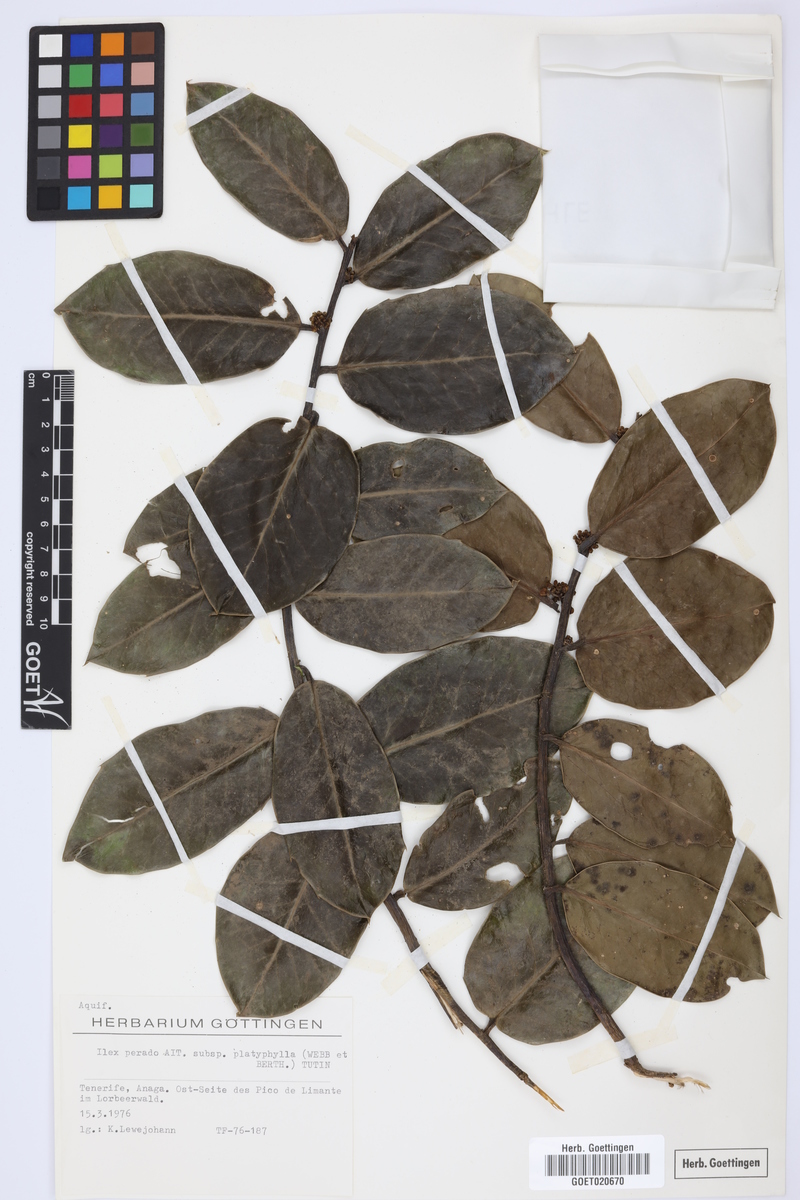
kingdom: Plantae
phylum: Tracheophyta
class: Magnoliopsida
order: Aquifoliales
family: Aquifoliaceae
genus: Ilex
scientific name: Ilex perado
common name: Madeira holly
